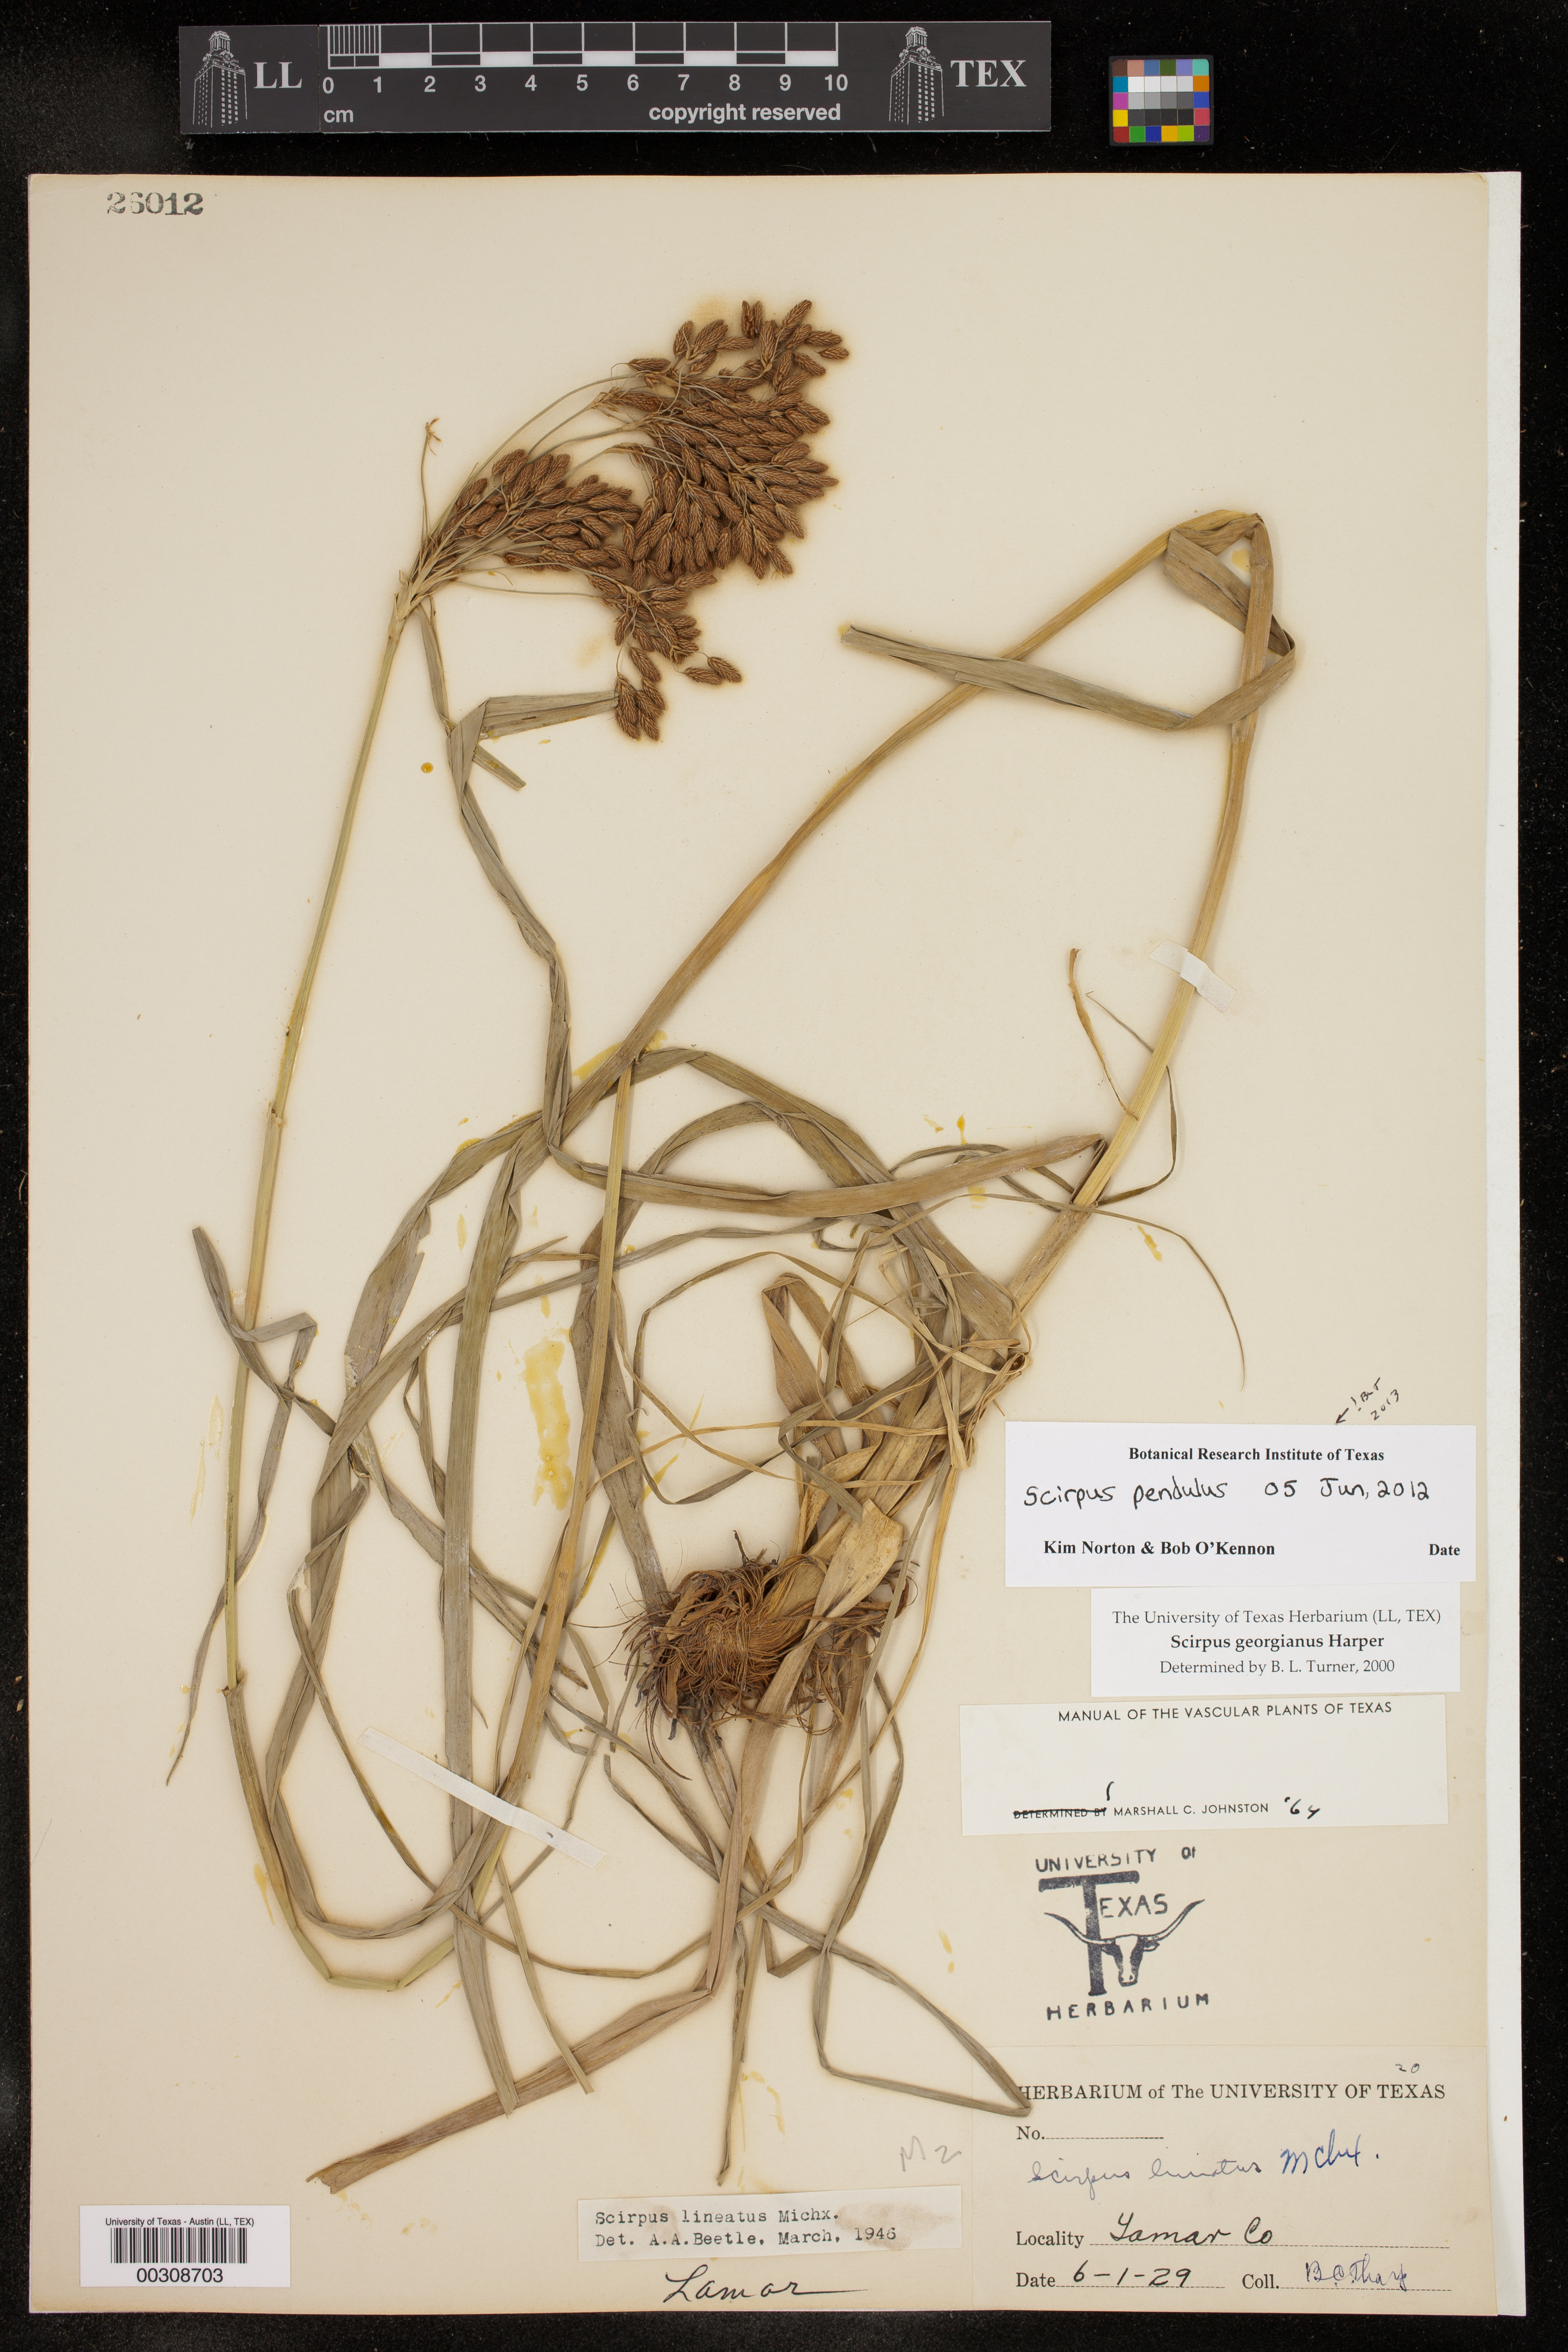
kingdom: Plantae
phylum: Tracheophyta
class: Liliopsida
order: Poales
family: Cyperaceae
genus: Scirpus
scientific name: Scirpus pendulus
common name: Nodding bulrush
